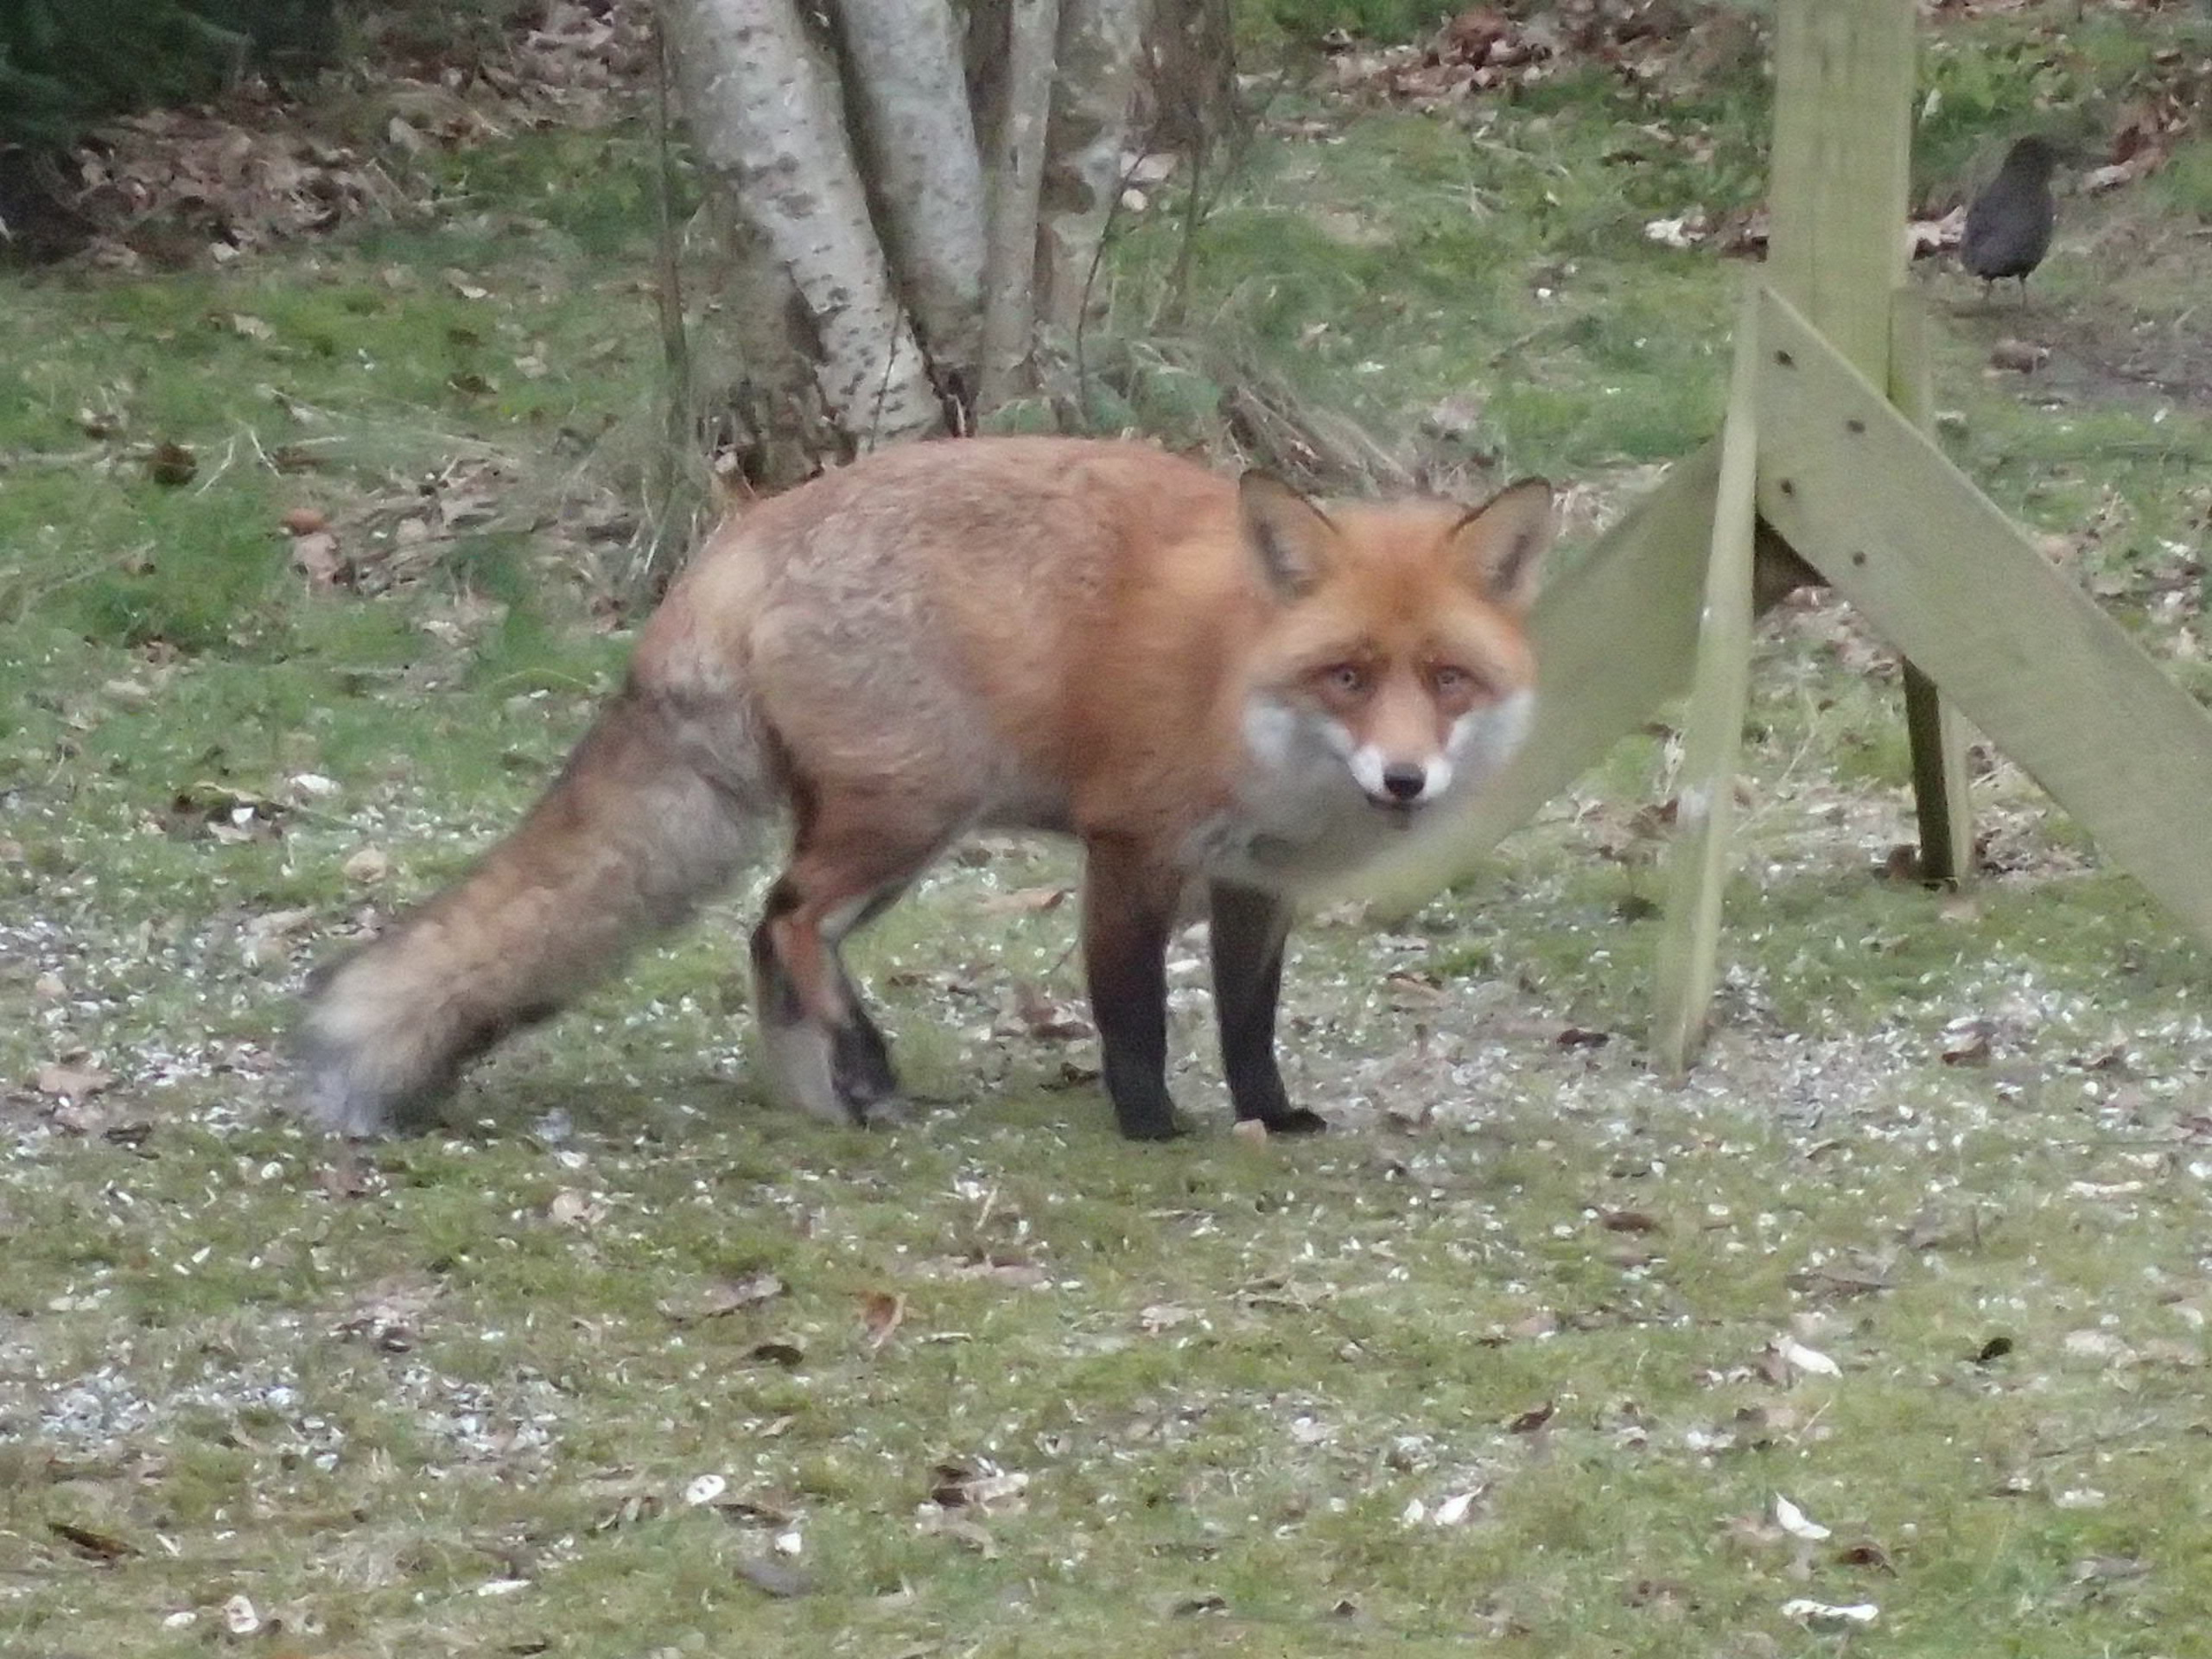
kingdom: Animalia
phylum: Chordata
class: Mammalia
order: Carnivora
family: Canidae
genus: Vulpes
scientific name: Vulpes vulpes
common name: Ræv
